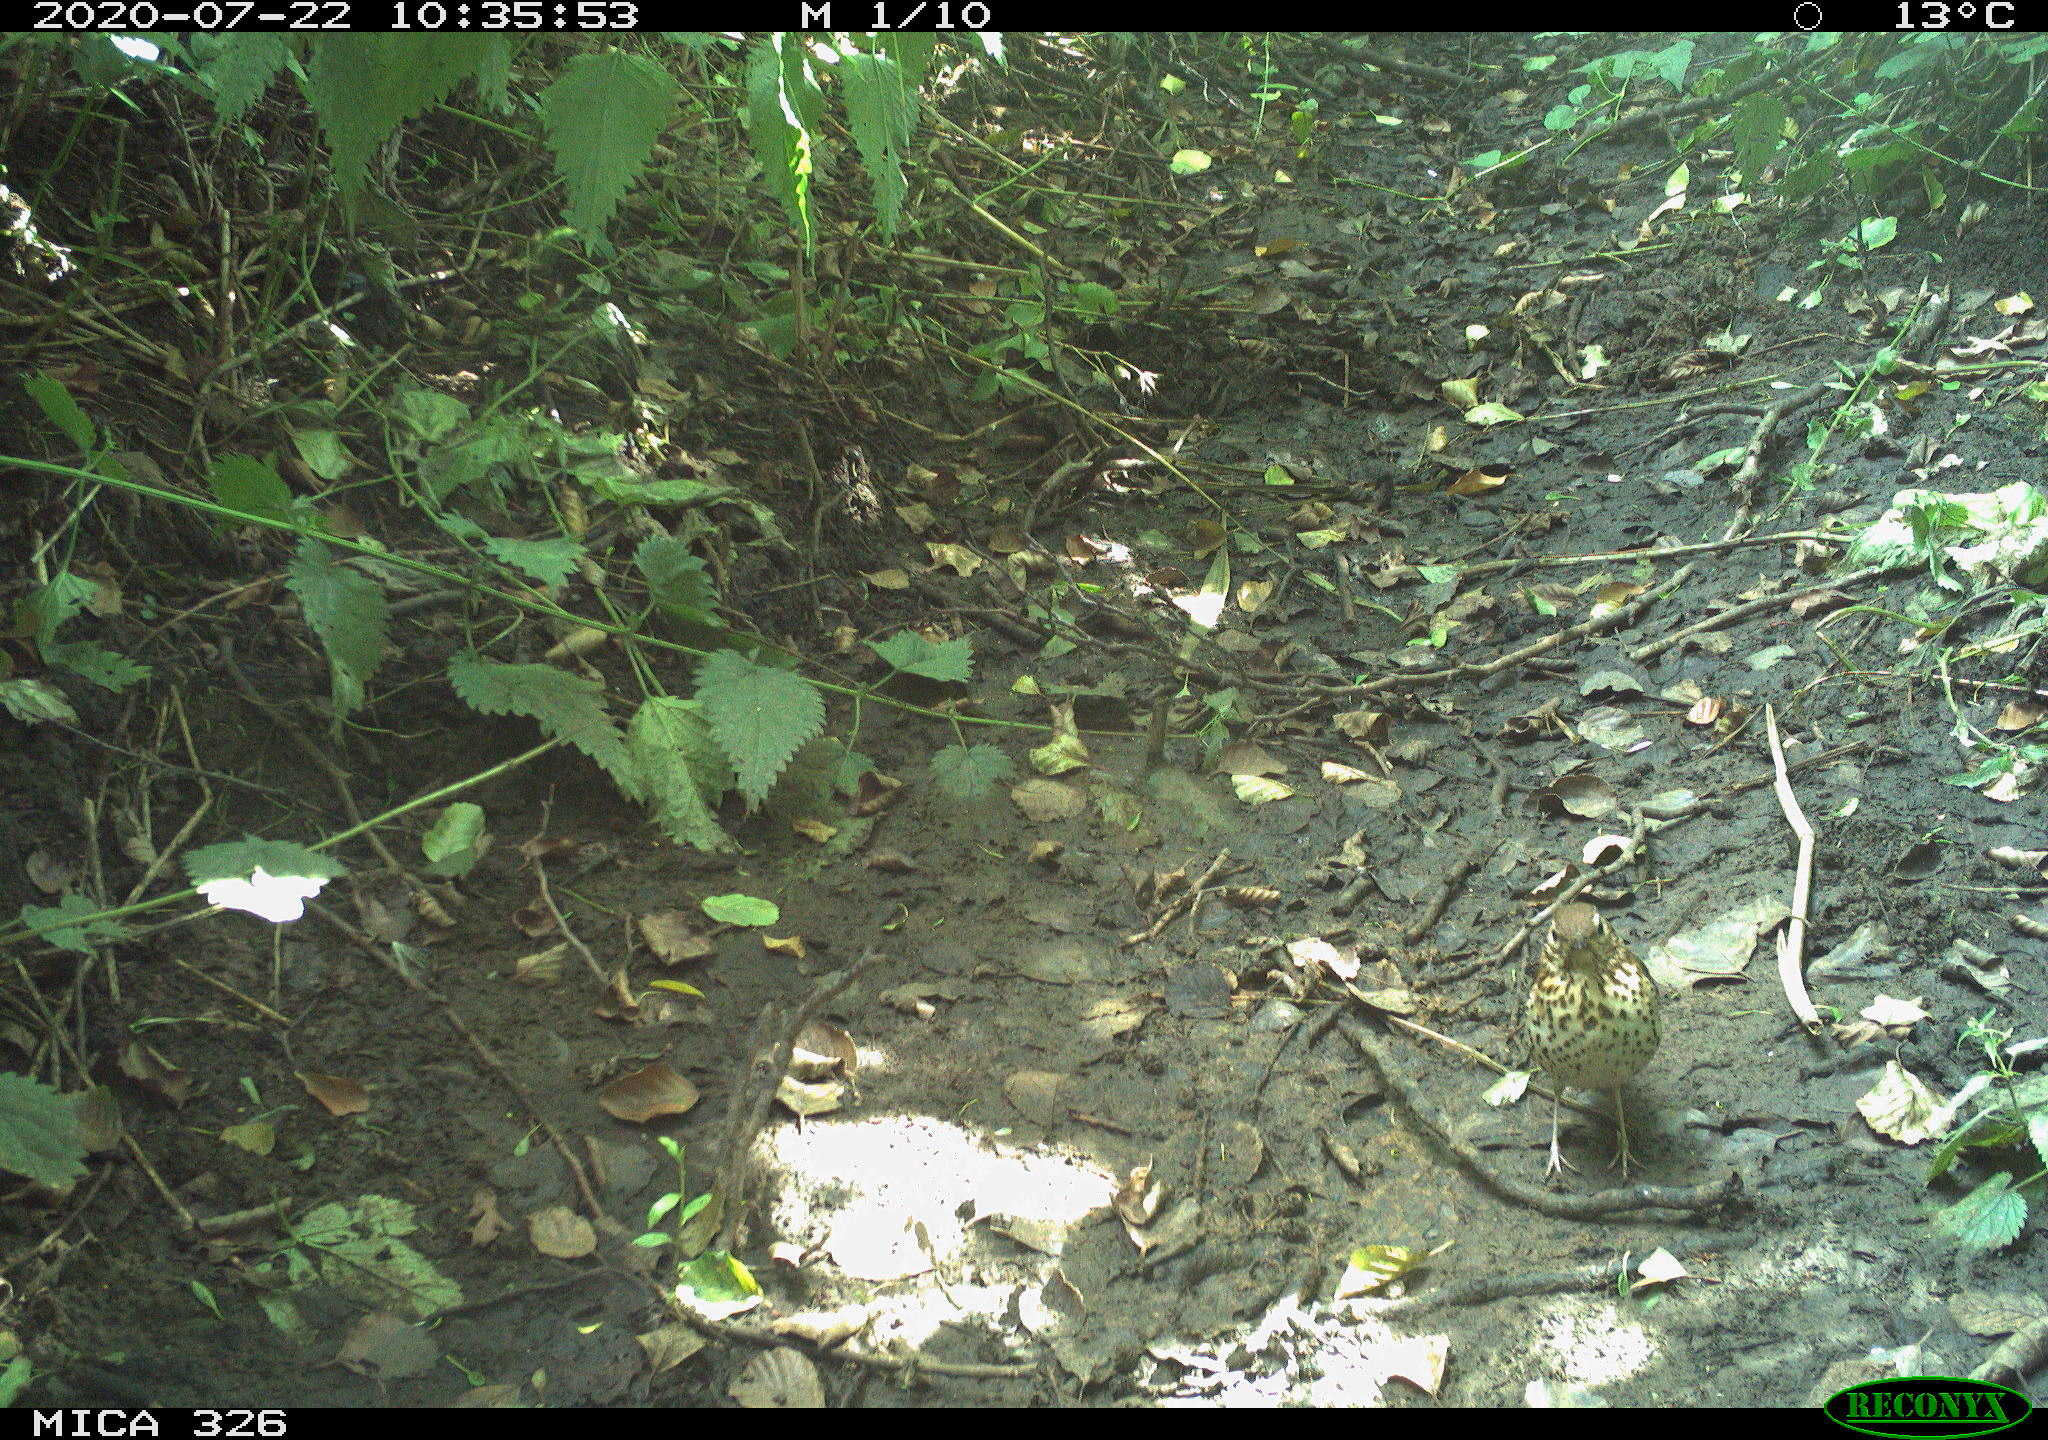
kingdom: Animalia
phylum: Chordata
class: Aves
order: Passeriformes
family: Turdidae
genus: Turdus
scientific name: Turdus philomelos
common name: Song thrush
